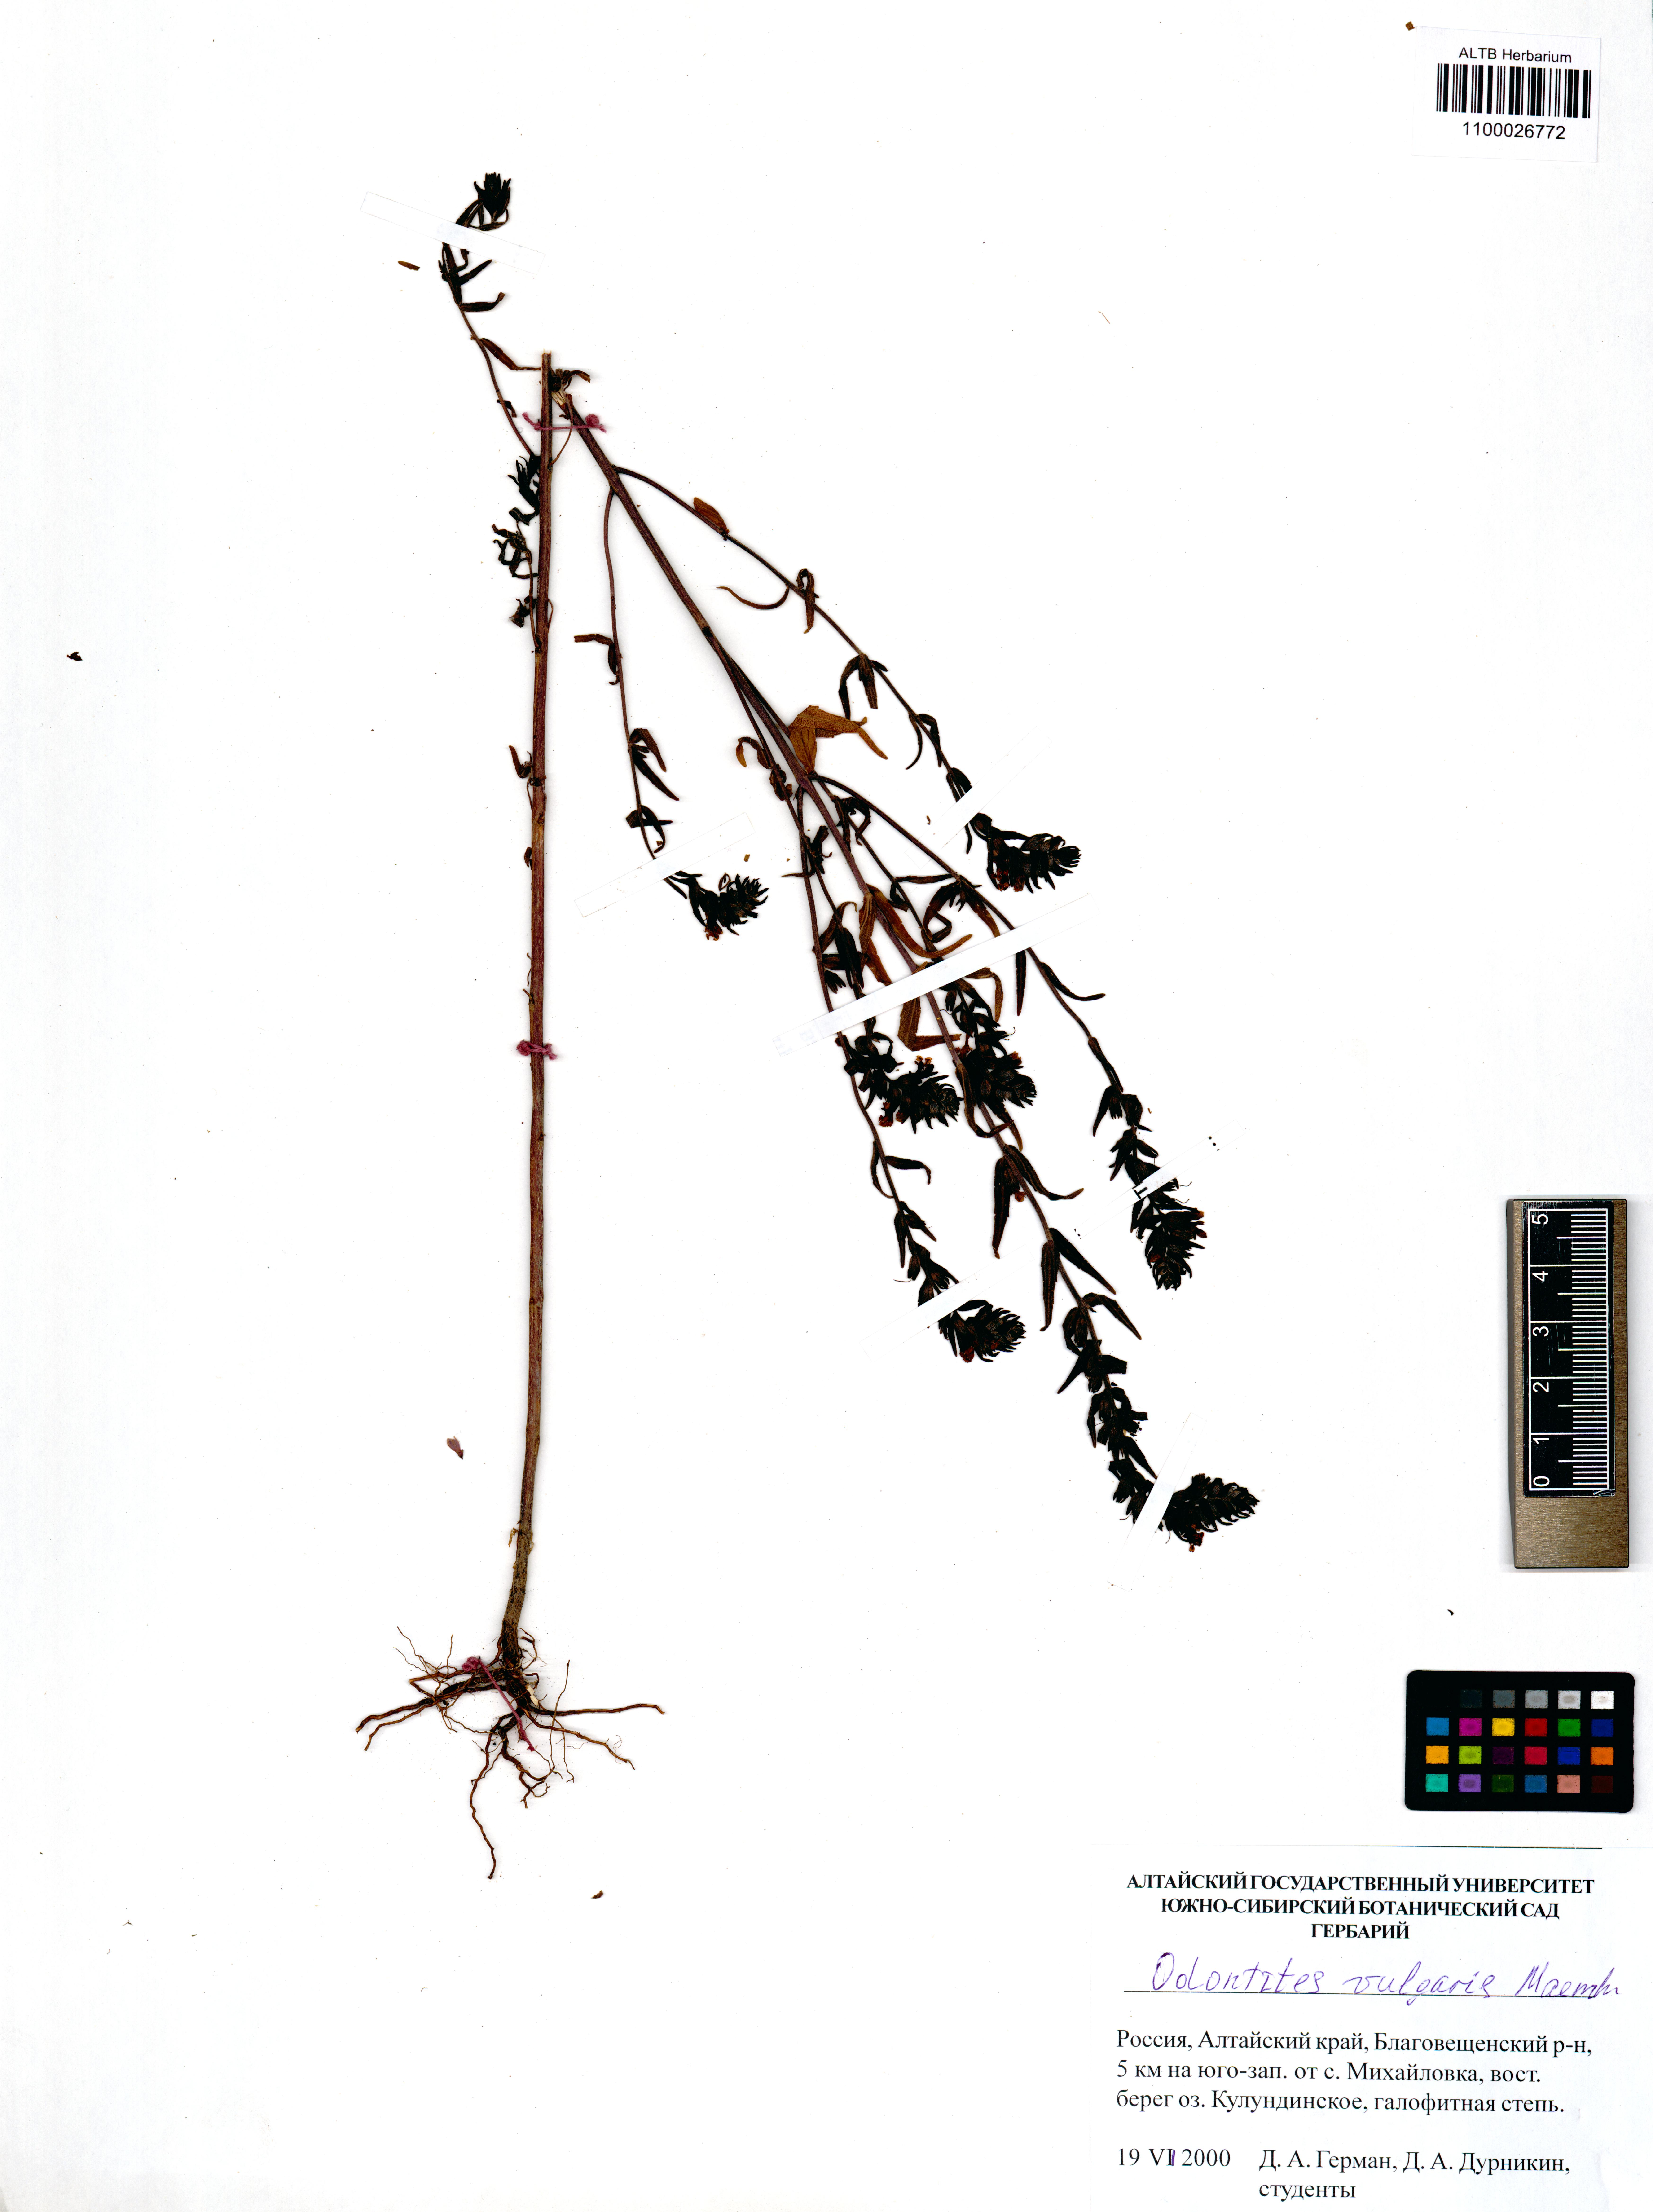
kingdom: Plantae
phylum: Tracheophyta
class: Magnoliopsida
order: Lamiales
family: Orobanchaceae
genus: Odontites
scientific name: Odontites vulgaris
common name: Broomrape
